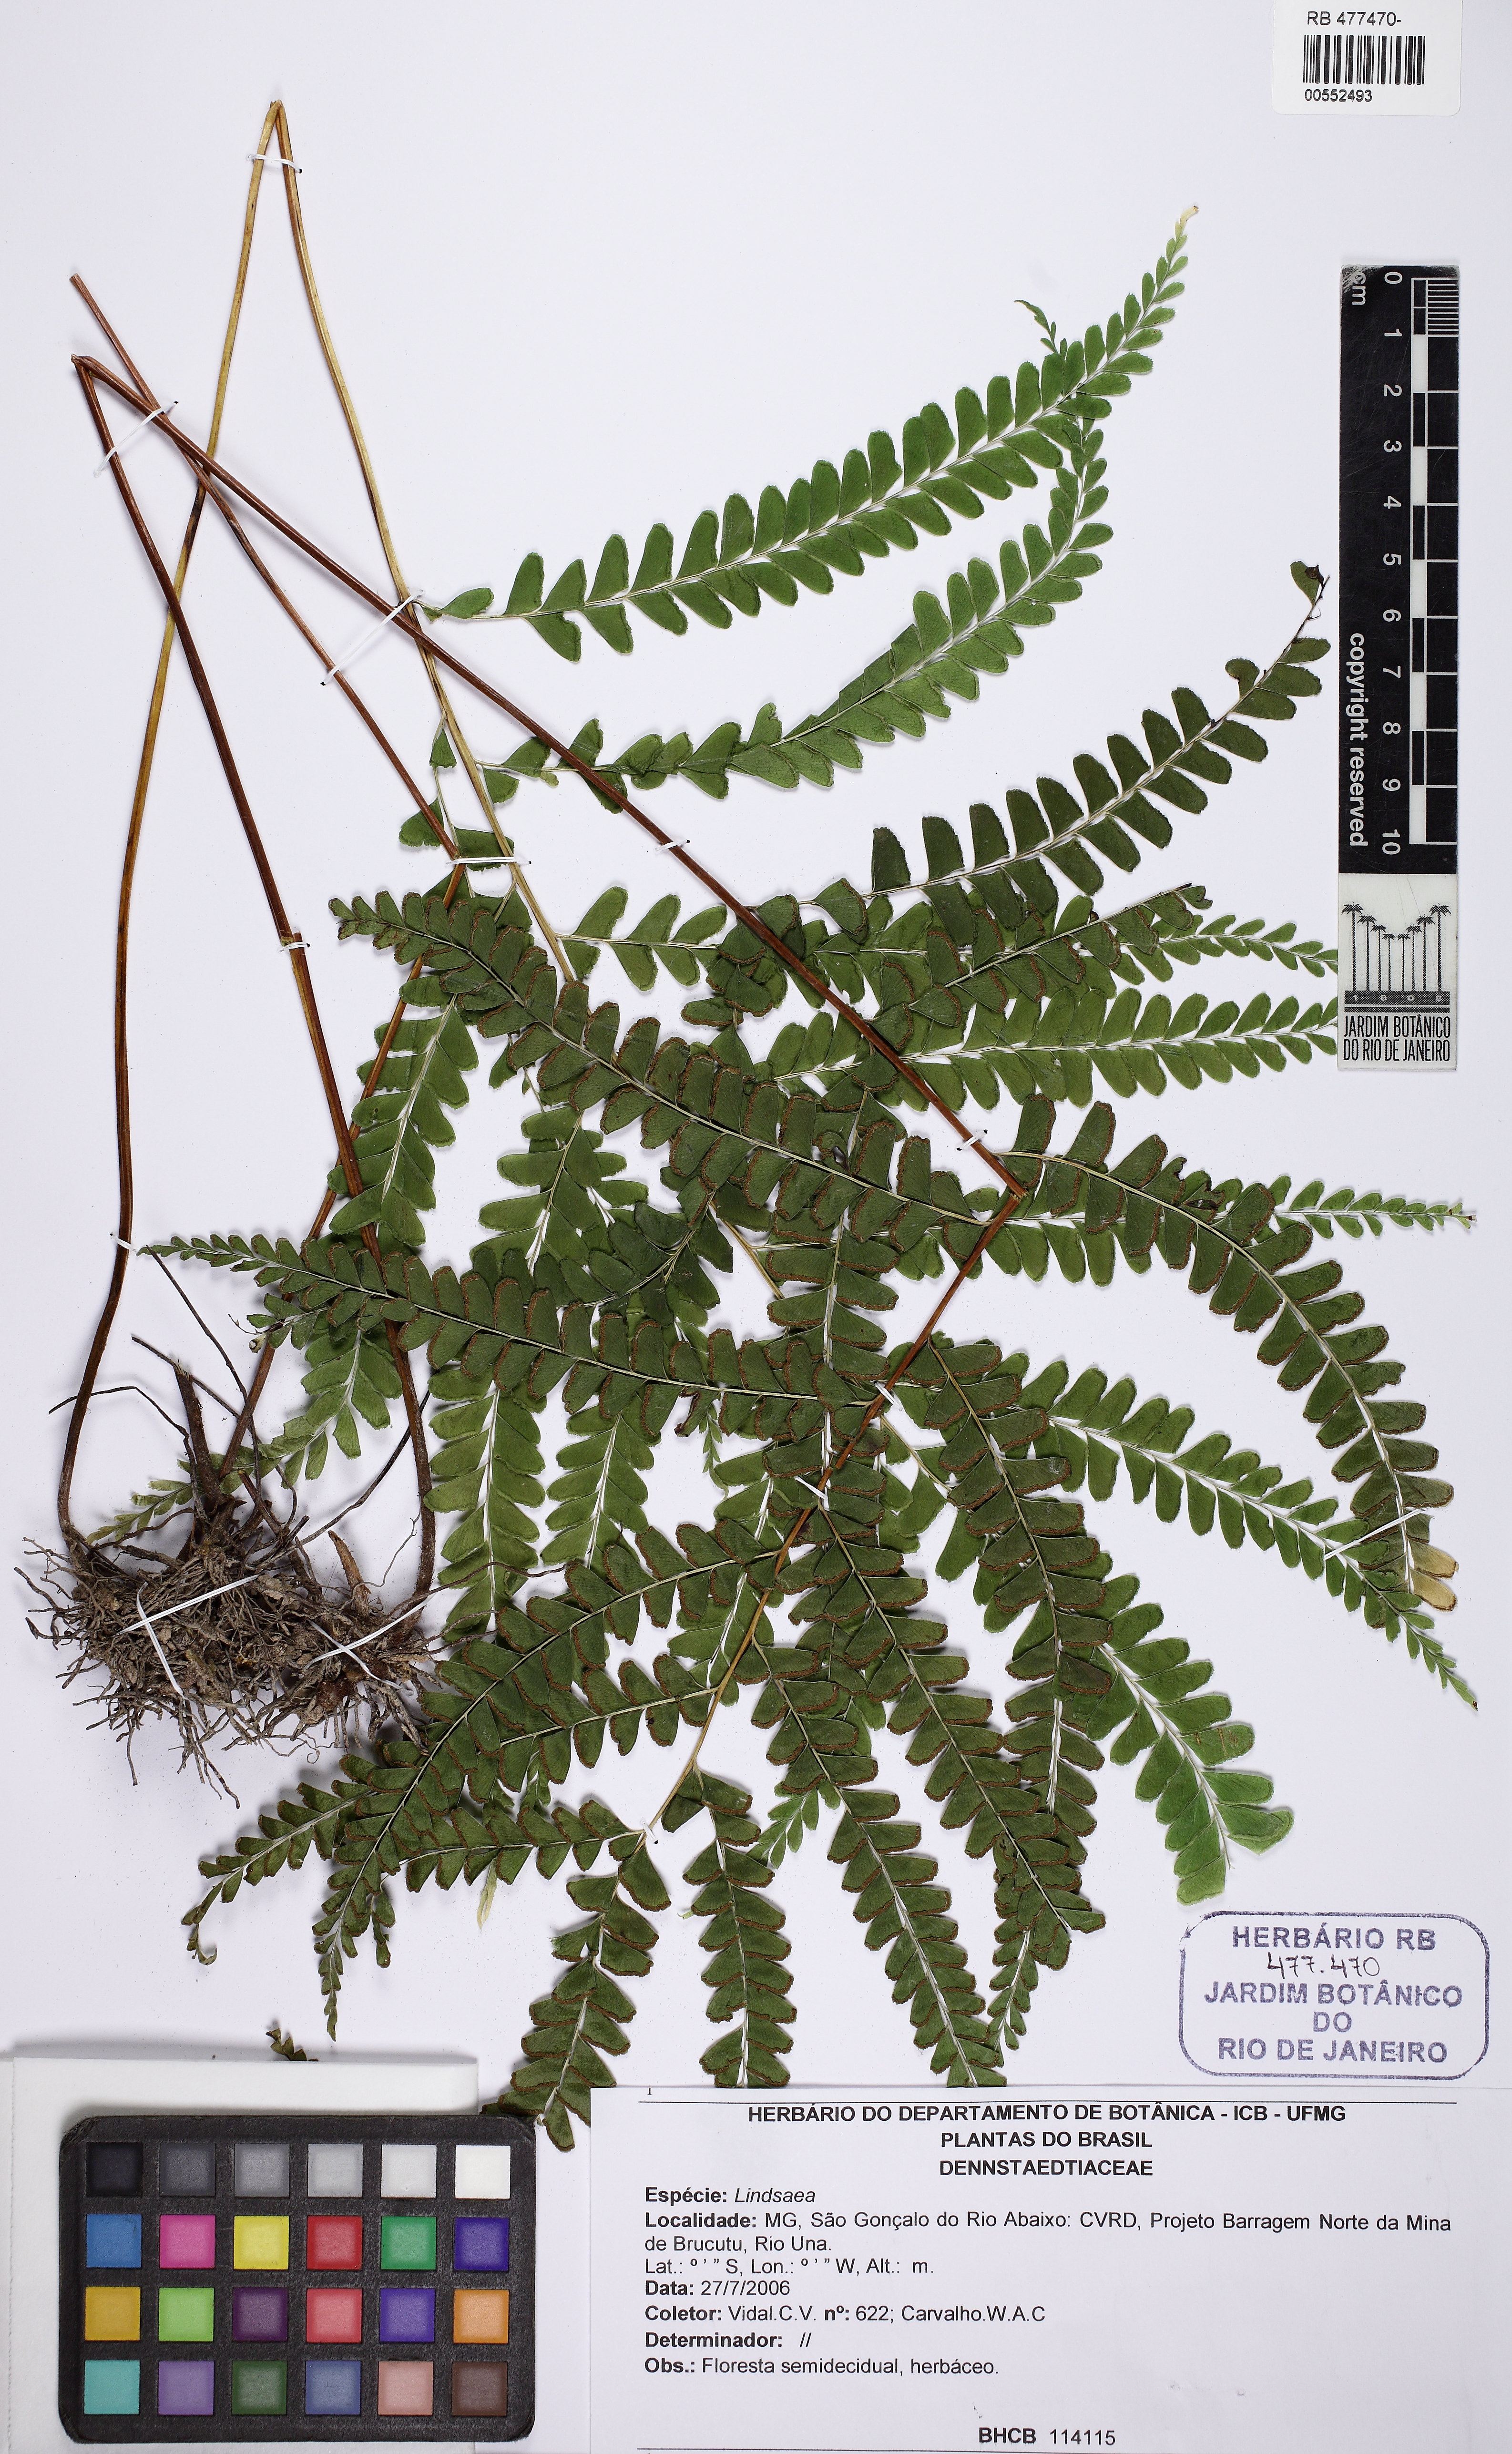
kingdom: Plantae
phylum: Tracheophyta
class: Polypodiopsida
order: Polypodiales
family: Lindsaeaceae
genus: Lindsaea
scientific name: Lindsaea
